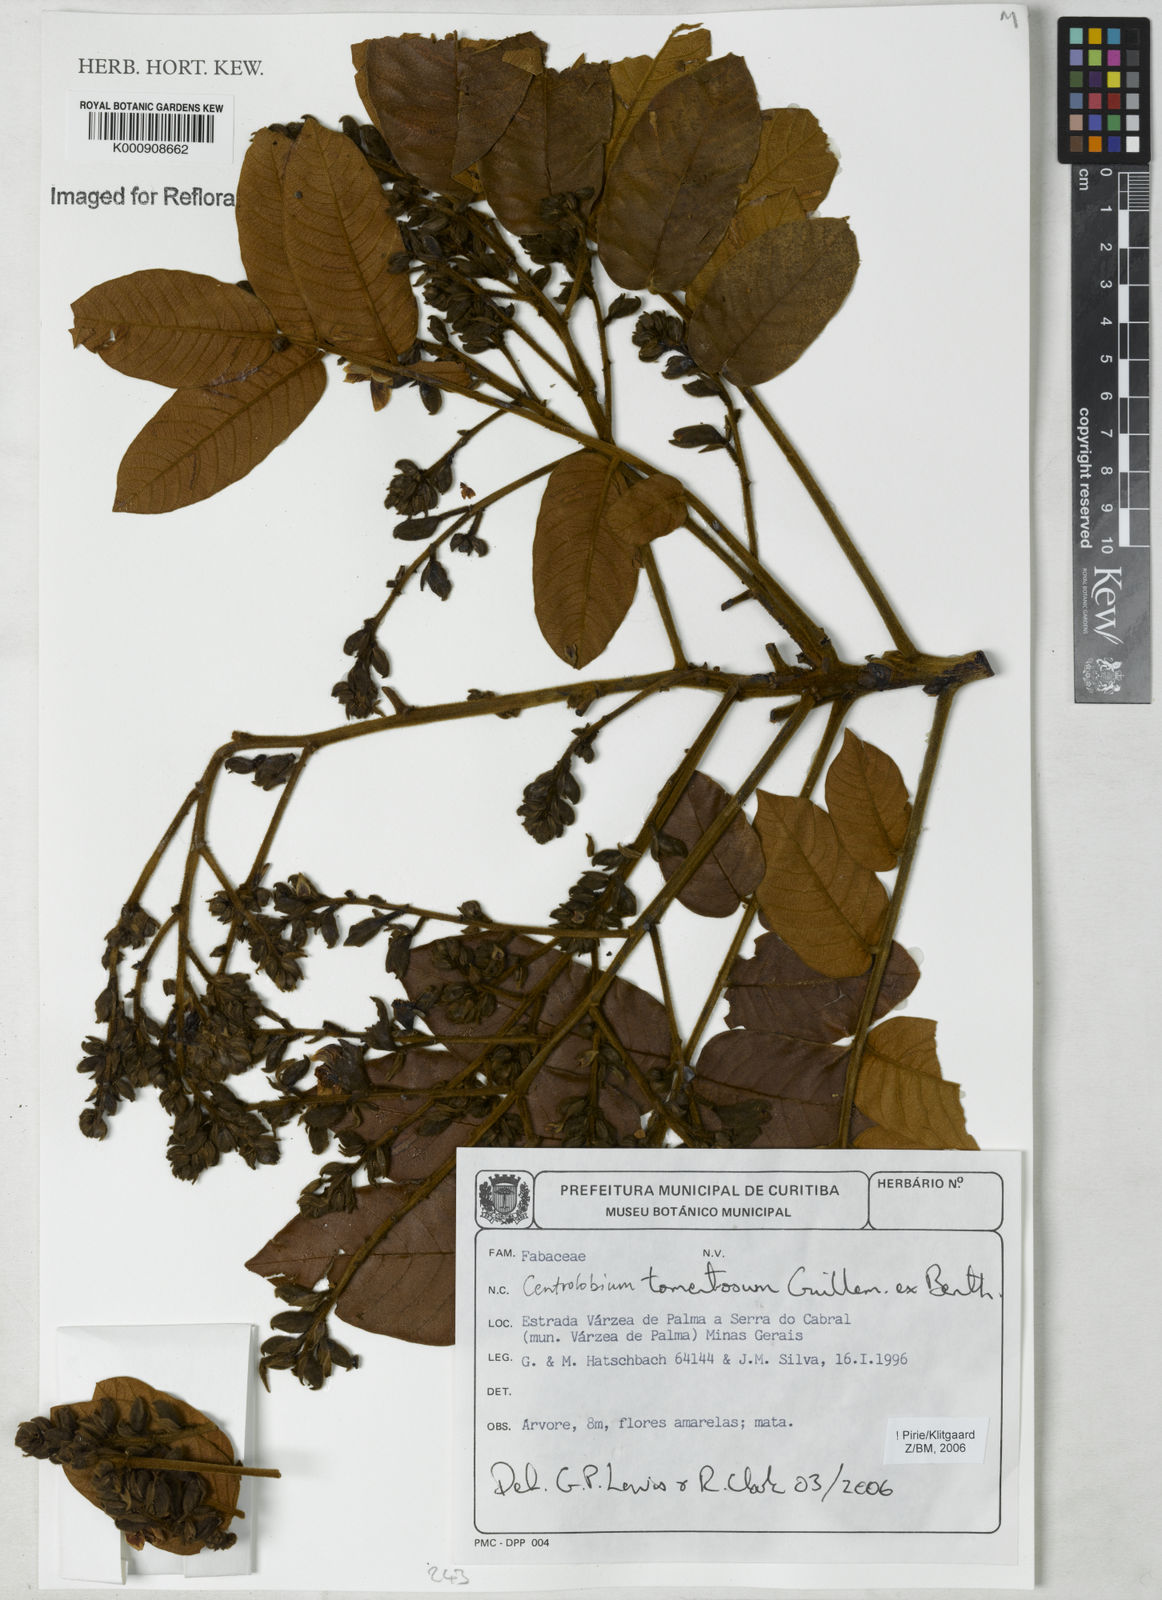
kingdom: Plantae
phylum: Tracheophyta
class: Magnoliopsida
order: Fabales
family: Fabaceae
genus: Centrolobium
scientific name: Centrolobium tomentosum
